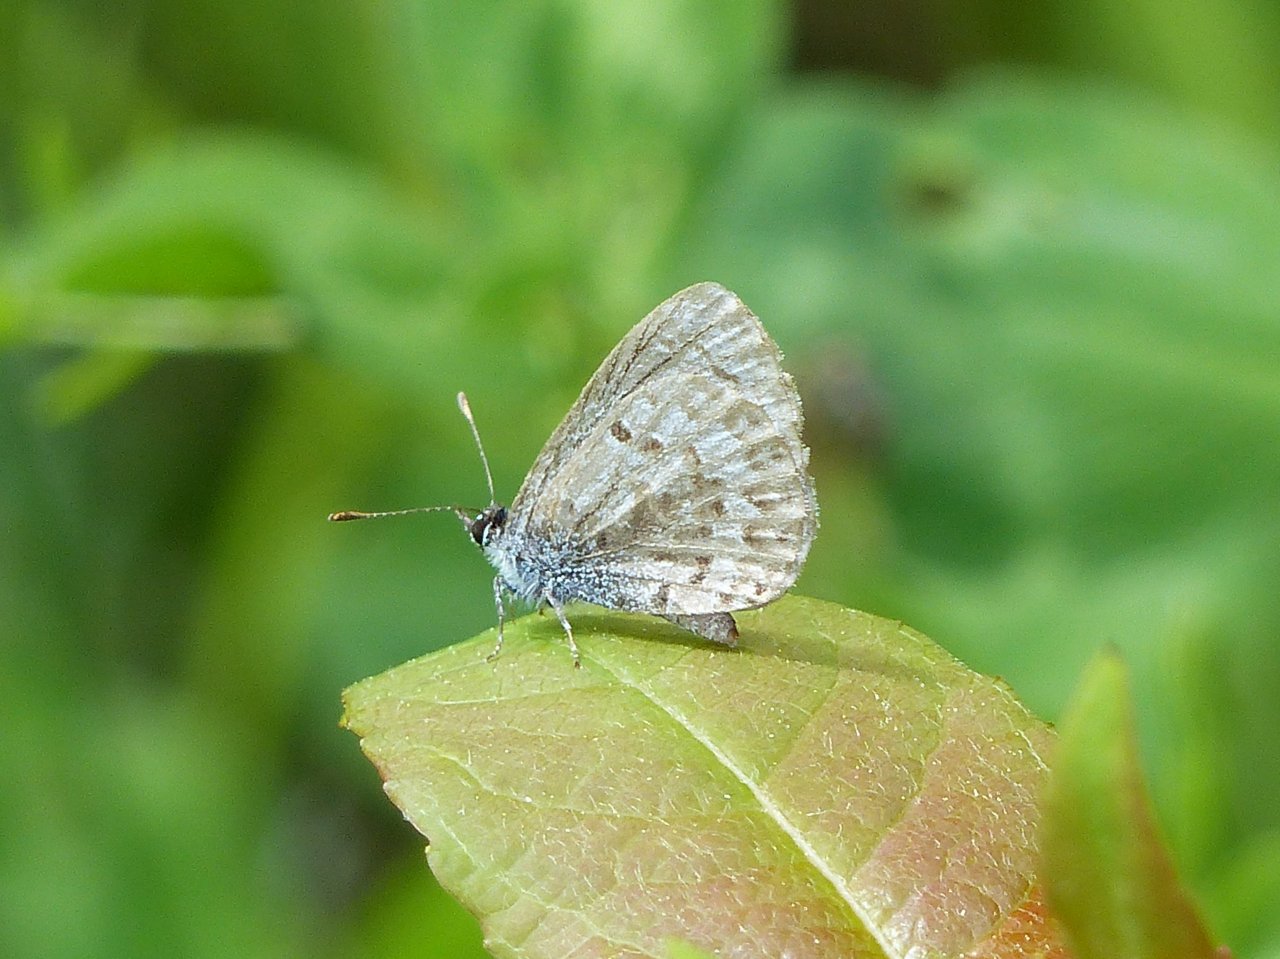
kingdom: Animalia
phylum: Arthropoda
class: Insecta
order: Lepidoptera
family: Lycaenidae
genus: Celastrina
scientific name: Celastrina lucia
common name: Northern Spring Azure
